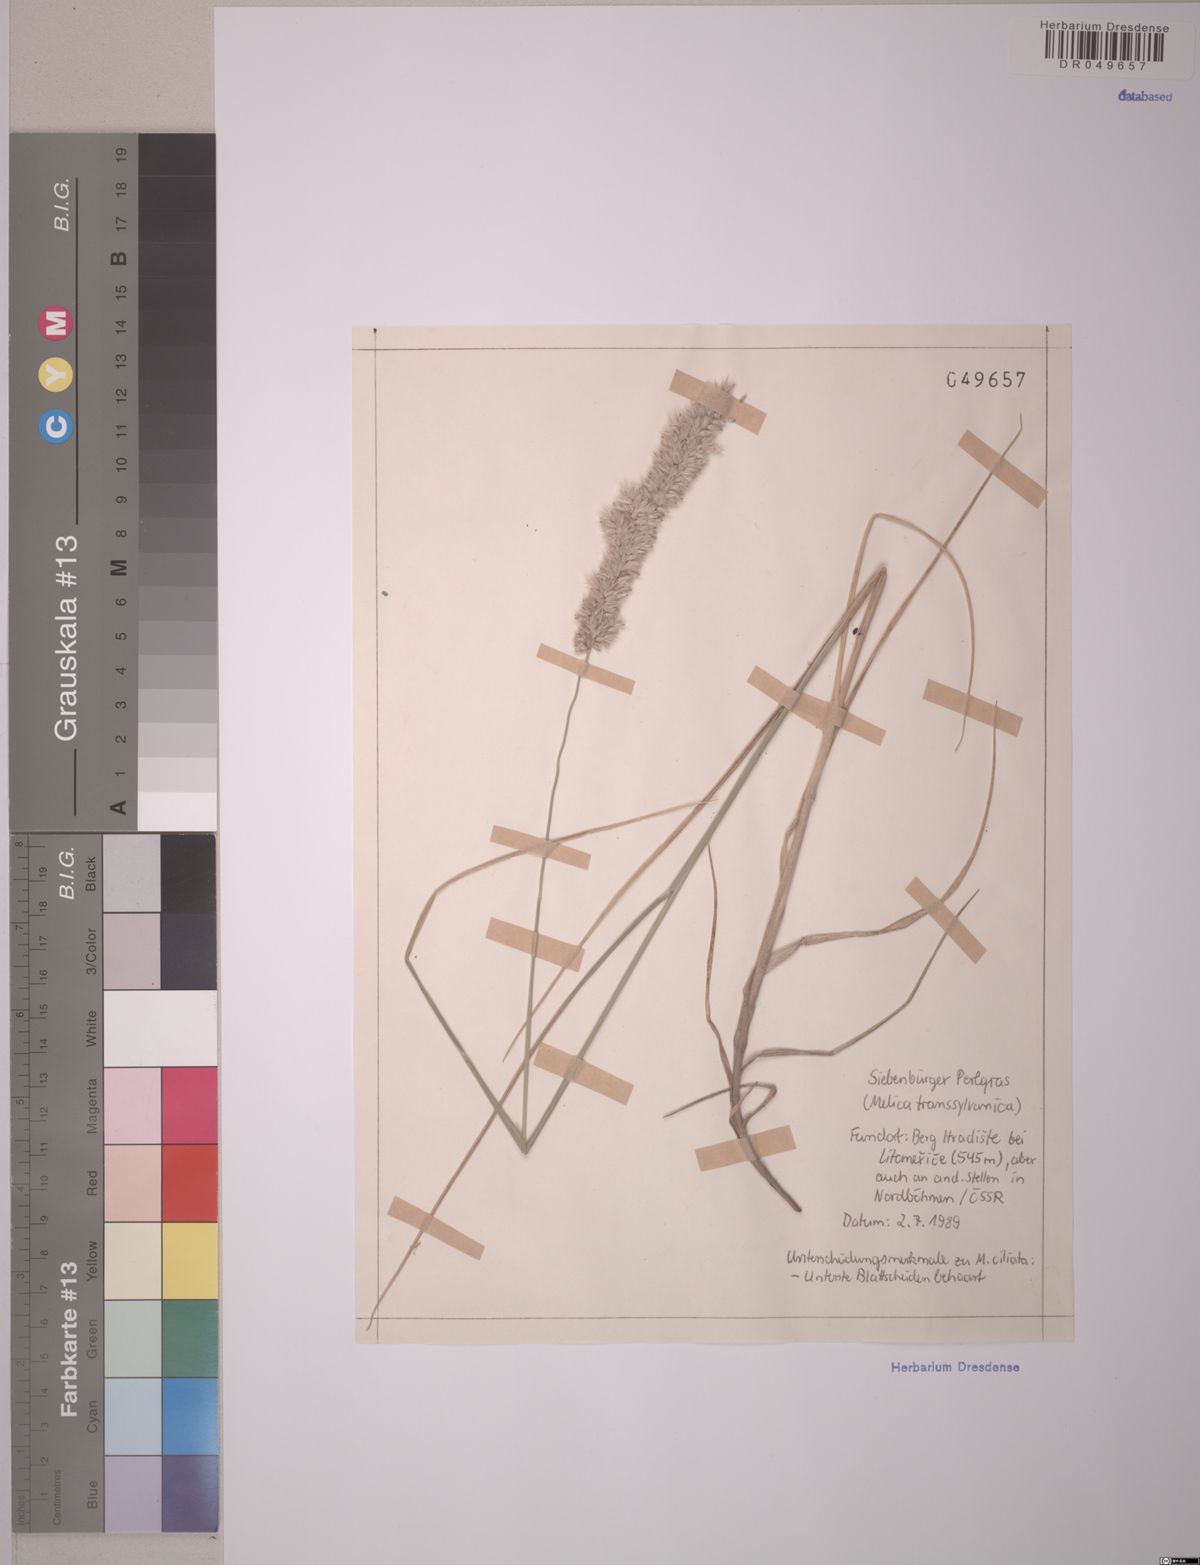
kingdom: Plantae
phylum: Tracheophyta
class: Liliopsida
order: Poales
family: Poaceae
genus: Melica
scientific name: Melica transsilvanica
